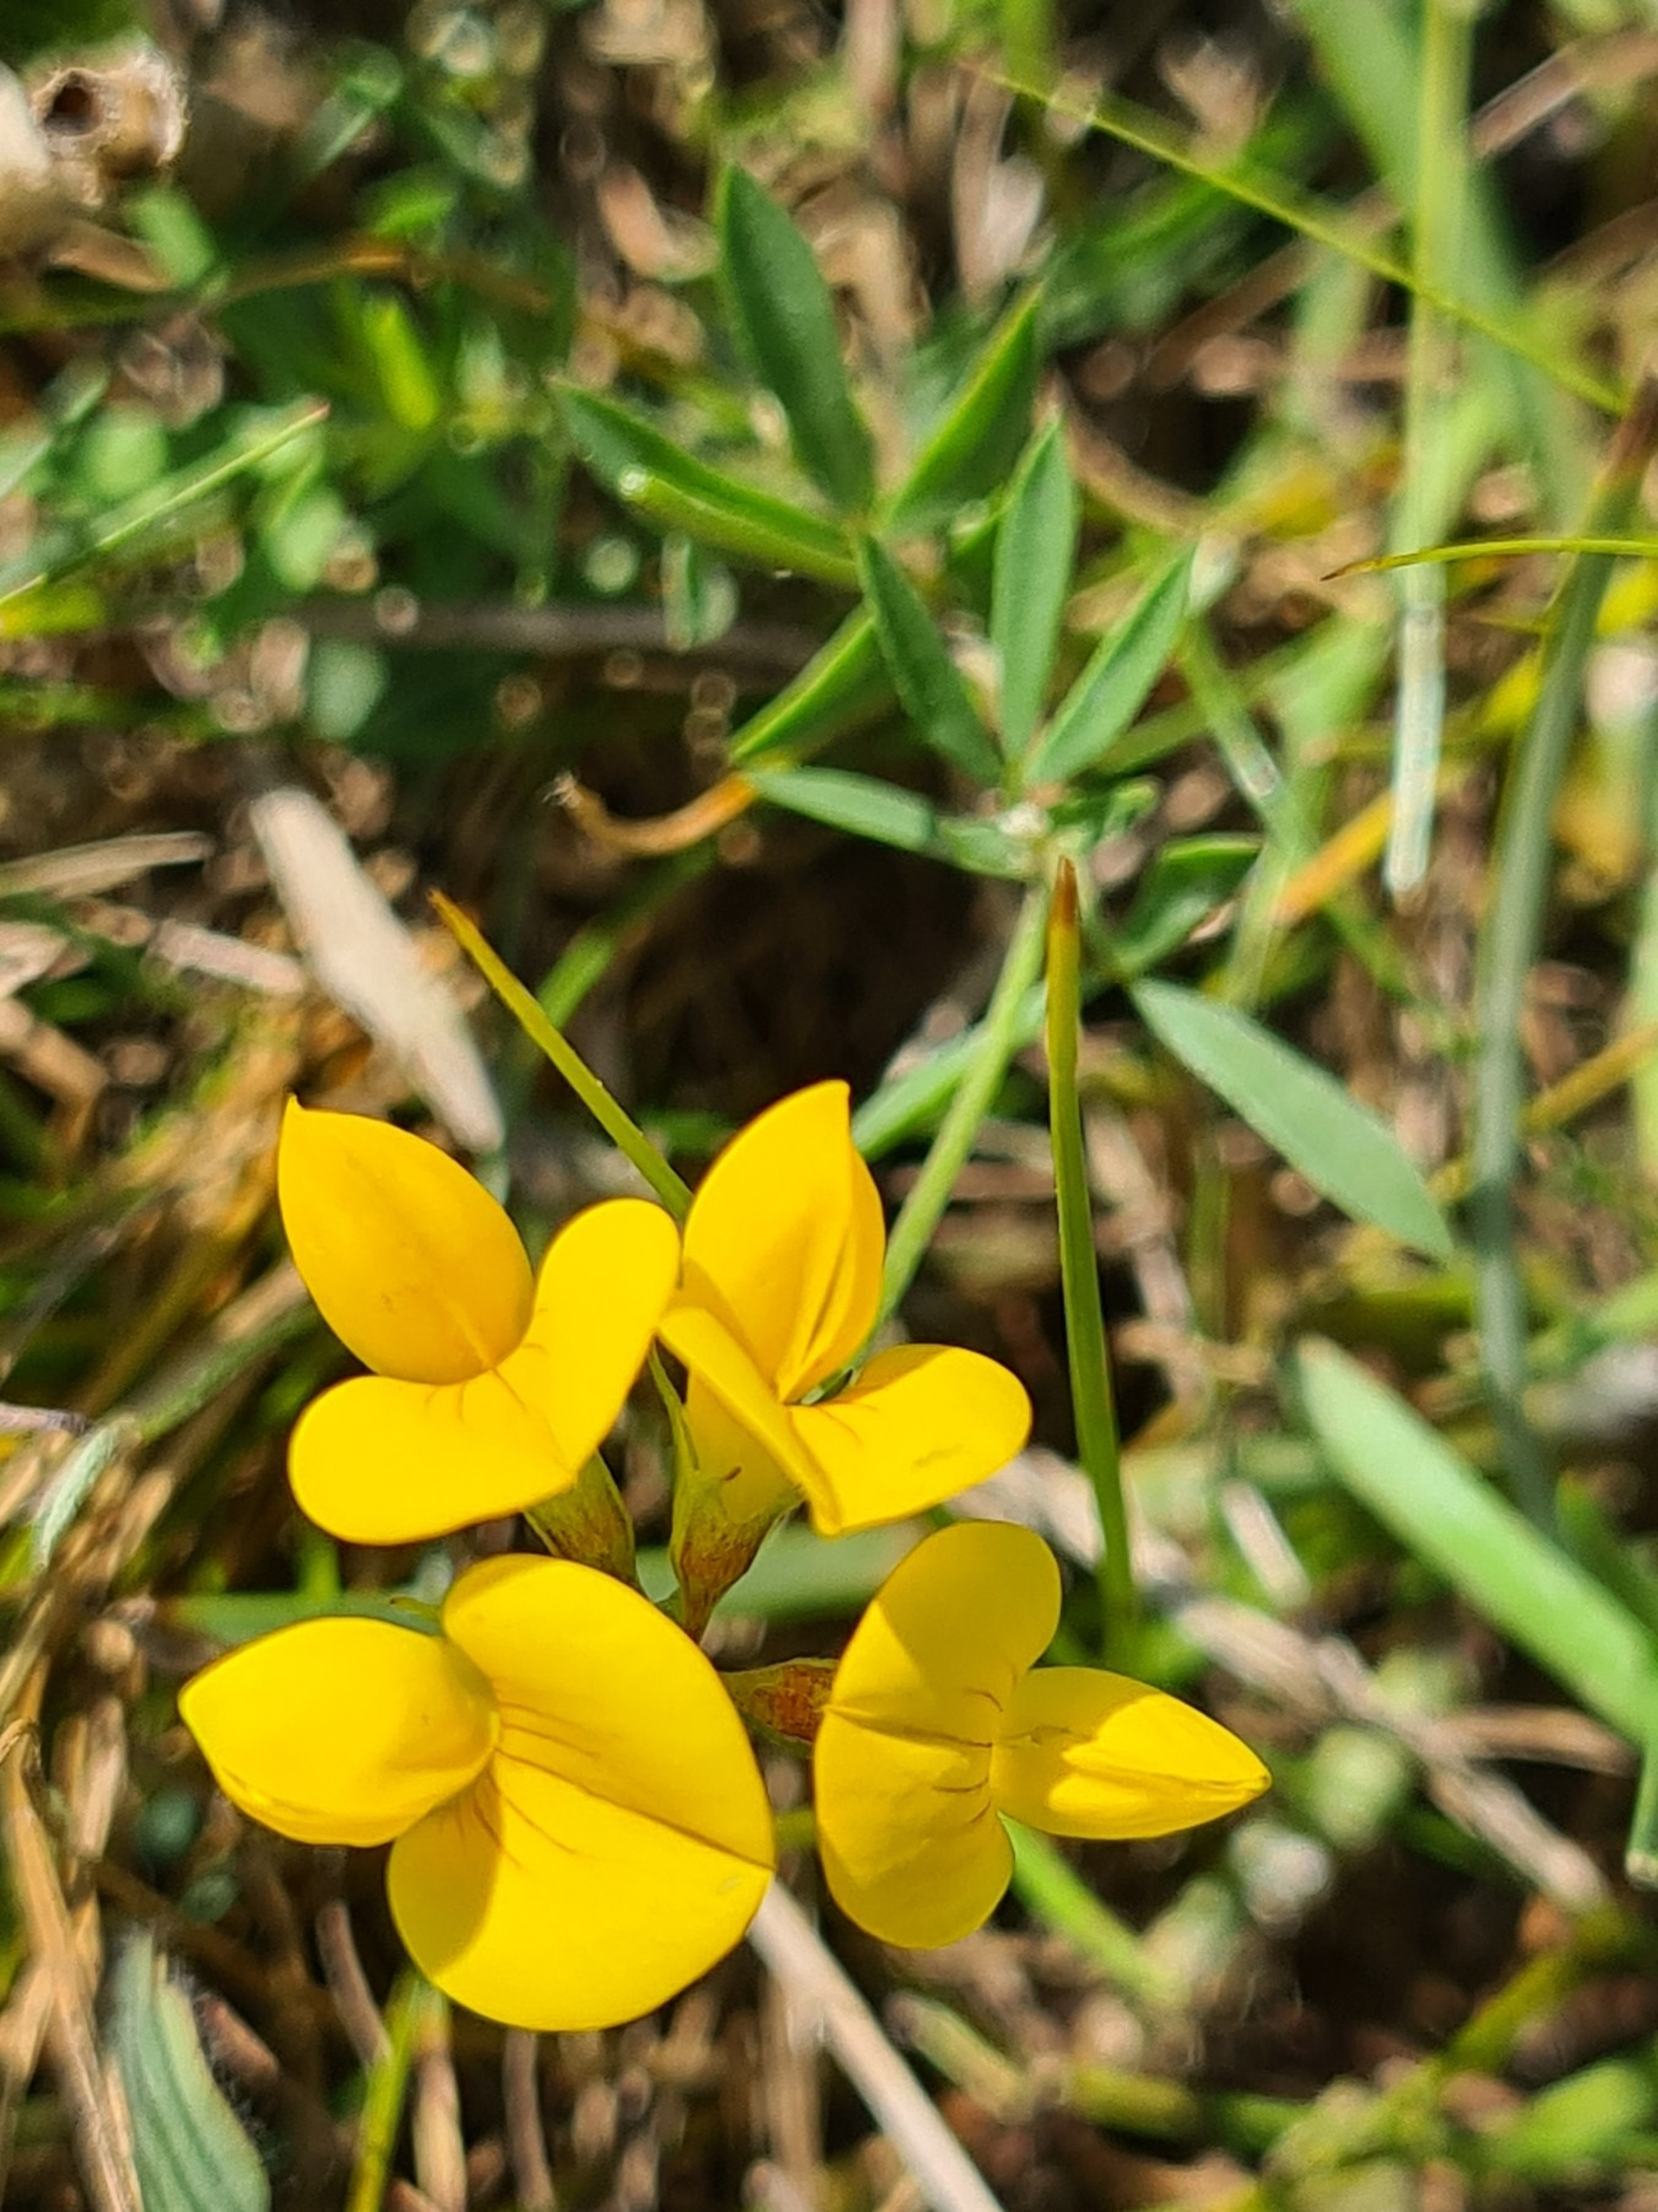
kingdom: Plantae
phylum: Tracheophyta
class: Magnoliopsida
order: Fabales
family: Fabaceae
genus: Lotus
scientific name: Lotus tenuis
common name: Smalbladet kællingetand
